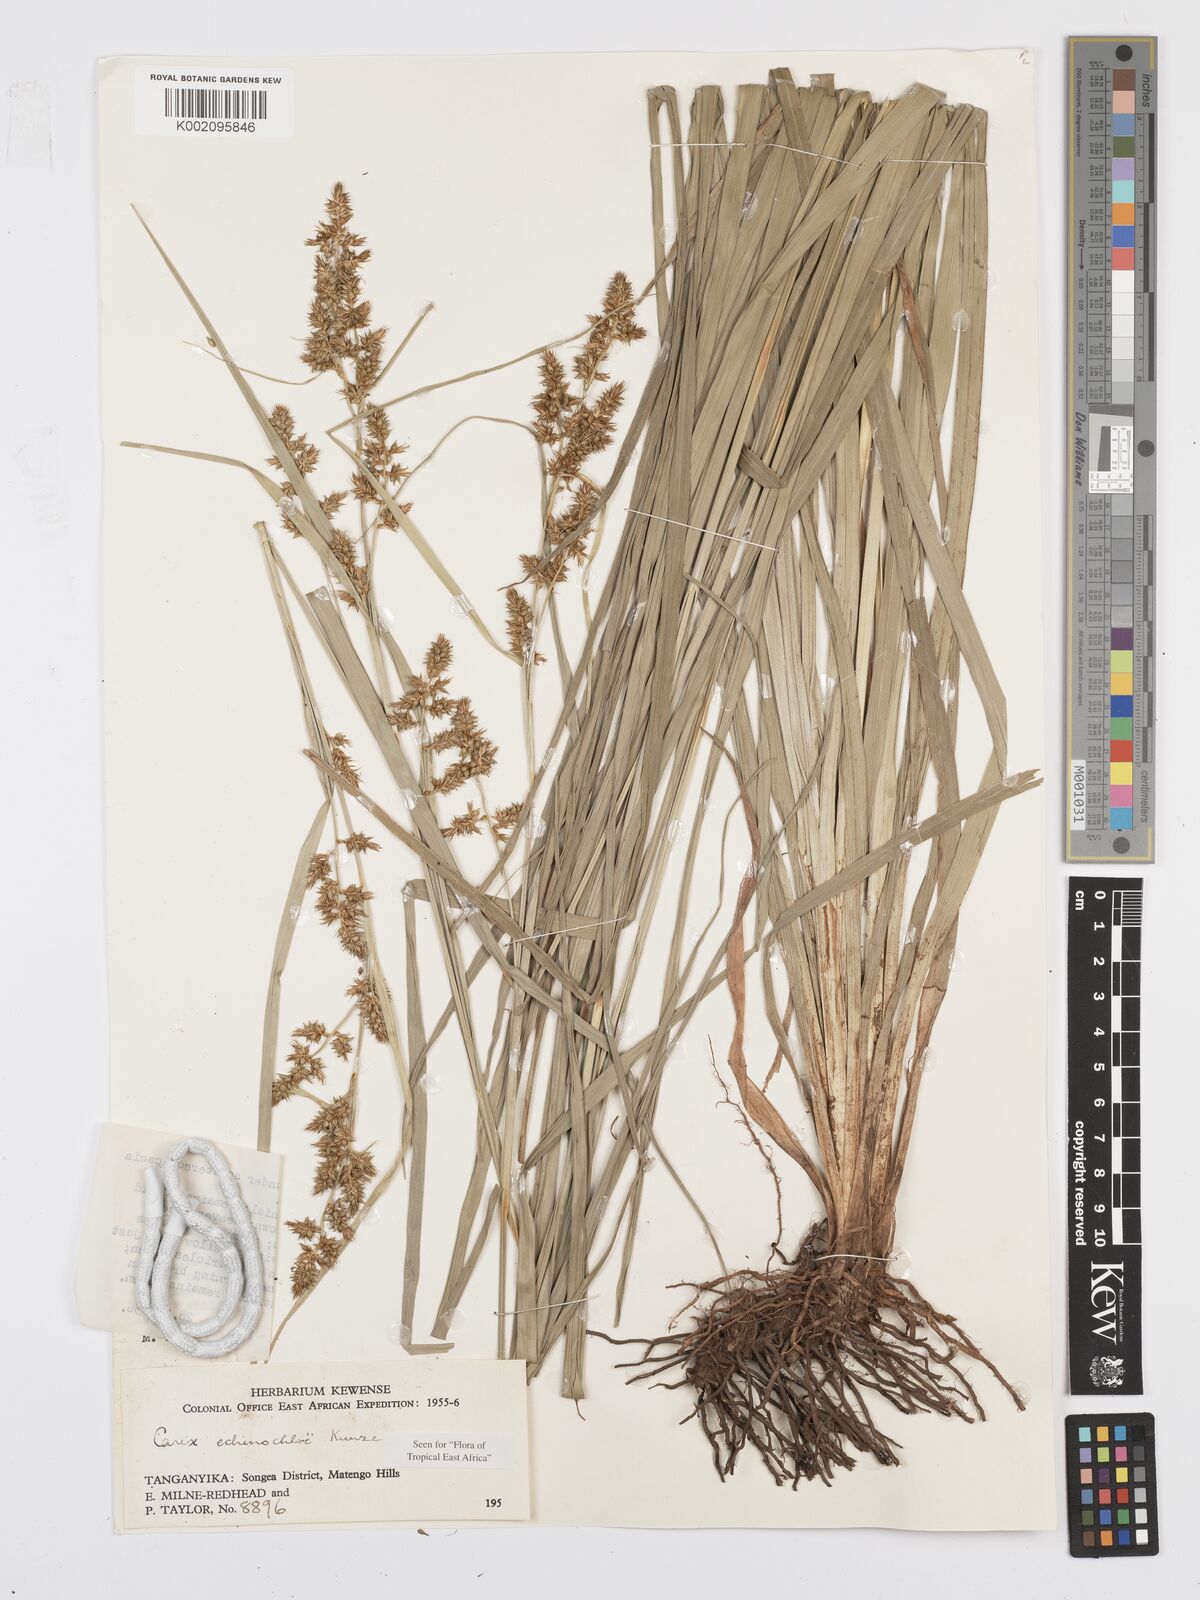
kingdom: Plantae
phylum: Tracheophyta
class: Liliopsida
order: Poales
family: Cyperaceae
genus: Carex
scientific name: Carex echinochloe
